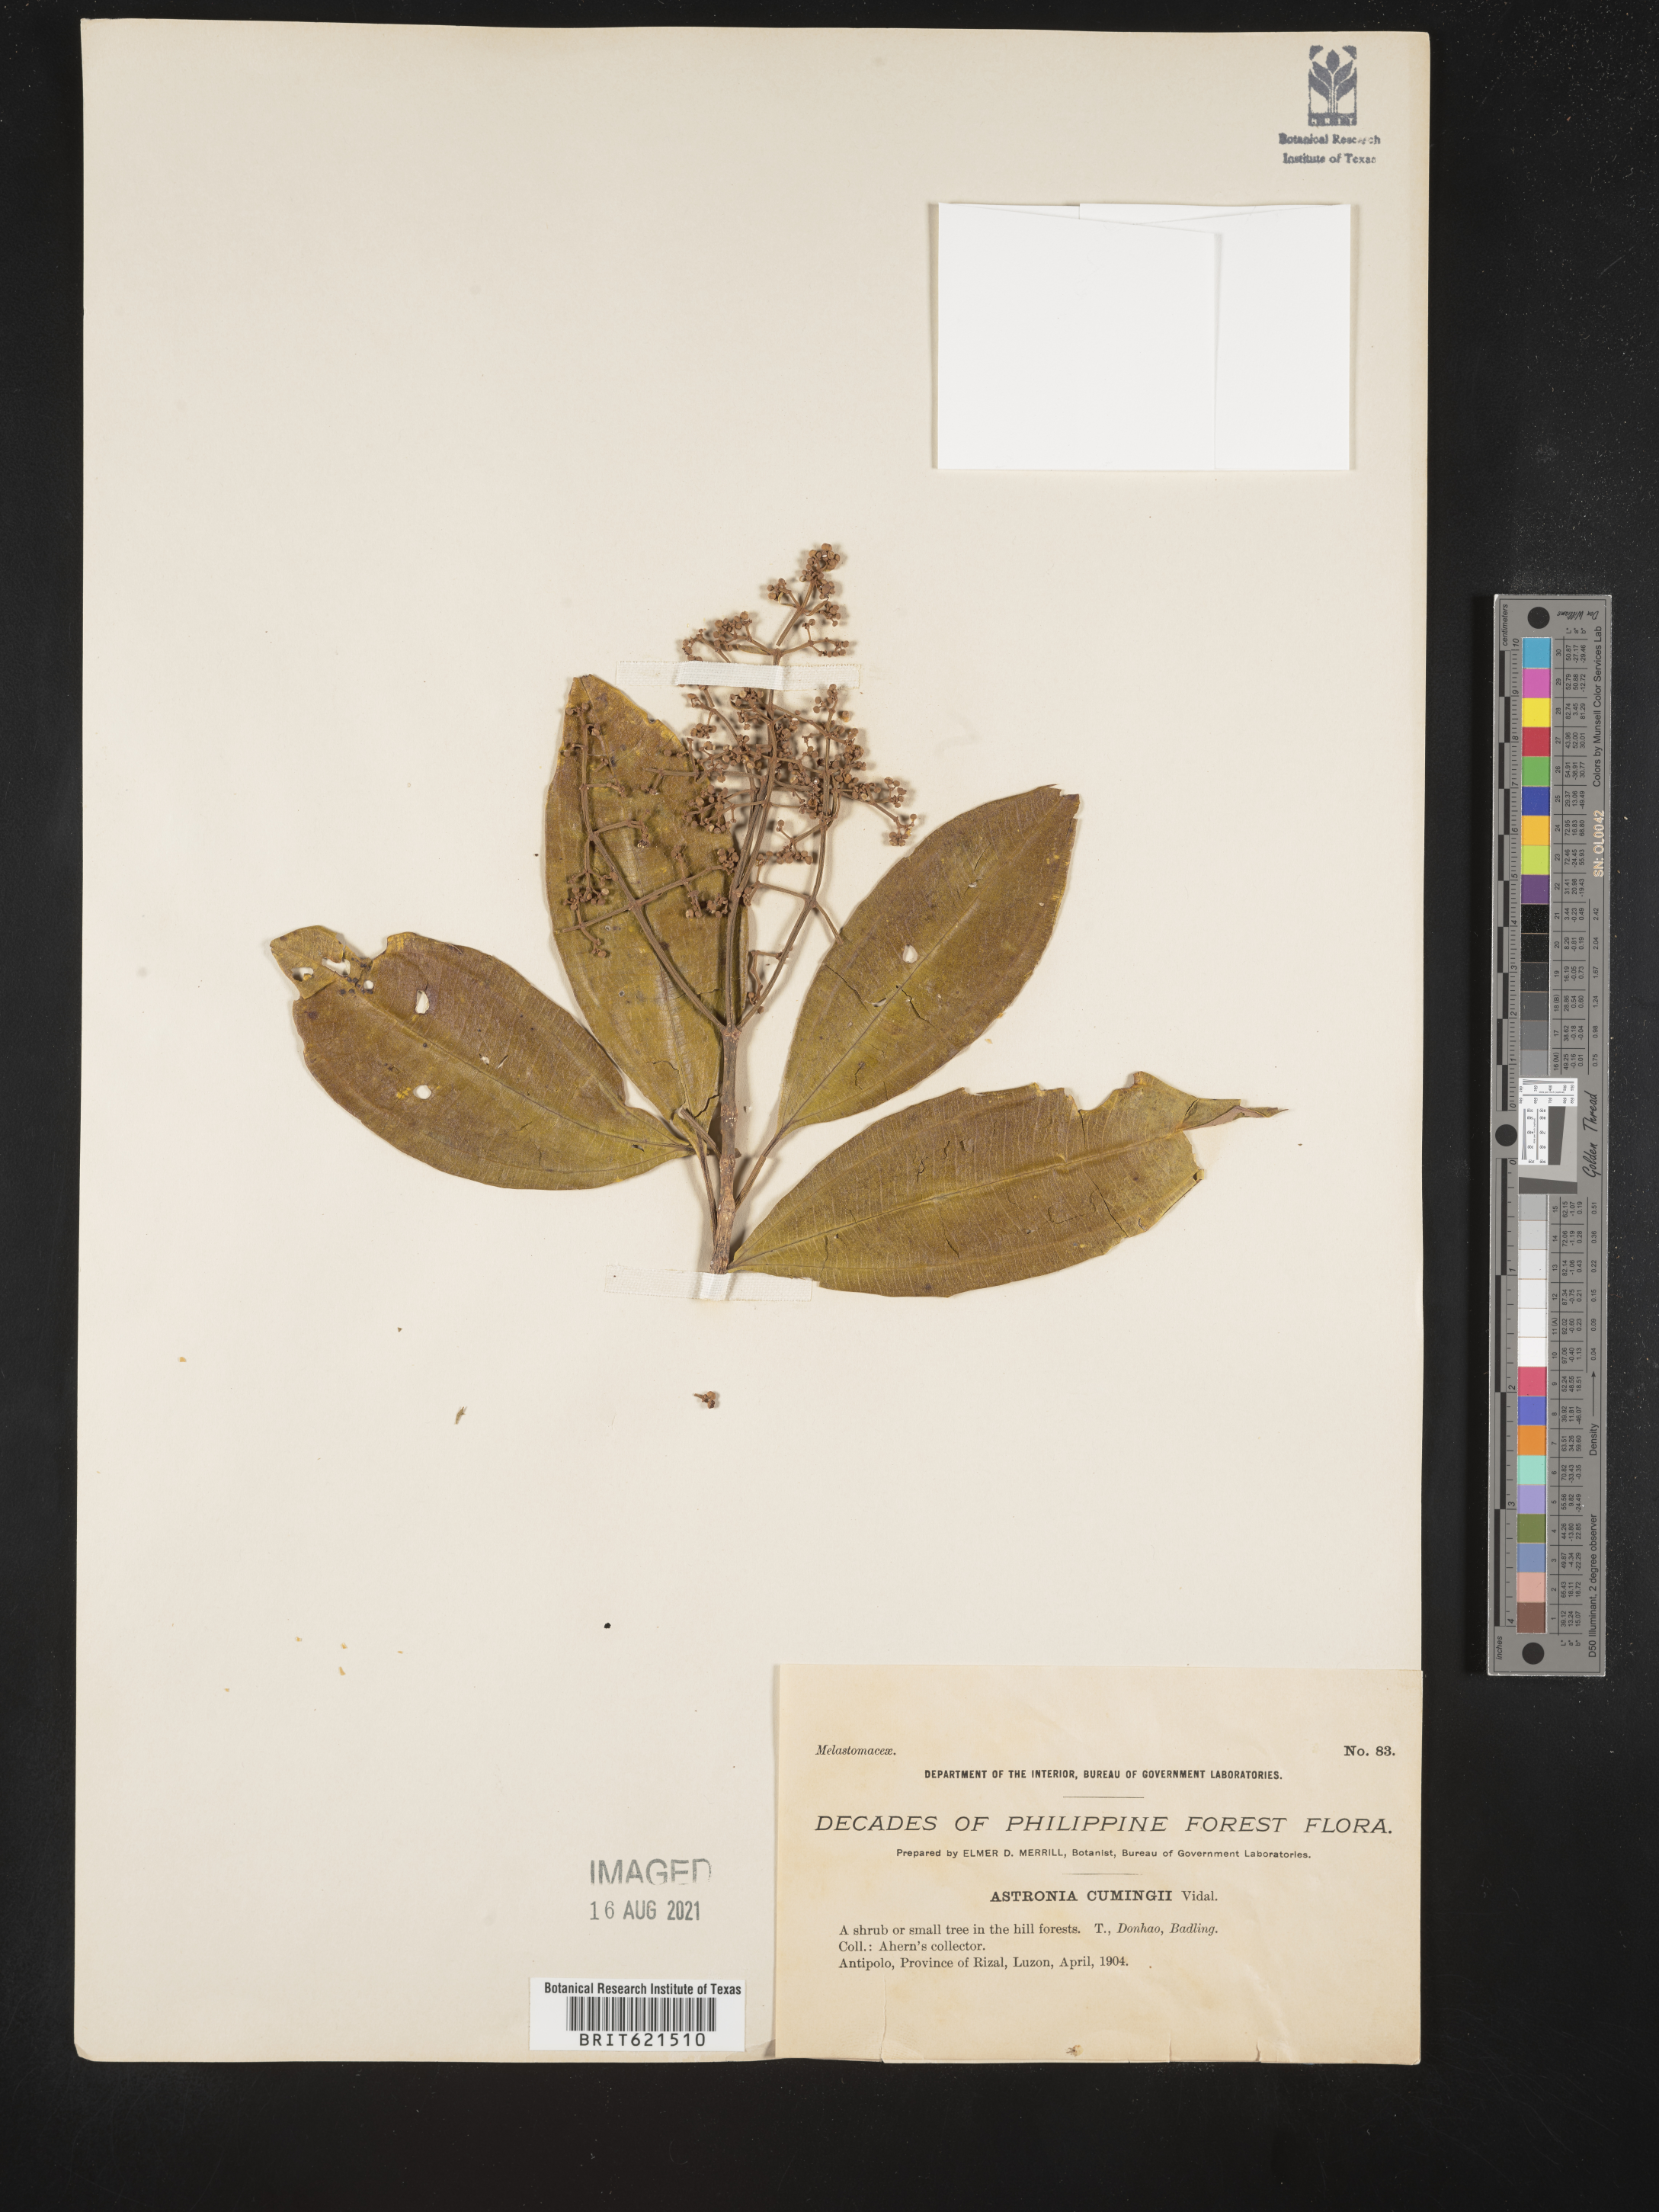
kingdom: Plantae
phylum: Tracheophyta
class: Magnoliopsida
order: Myrtales
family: Melastomataceae
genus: Astronia
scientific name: Astronia
